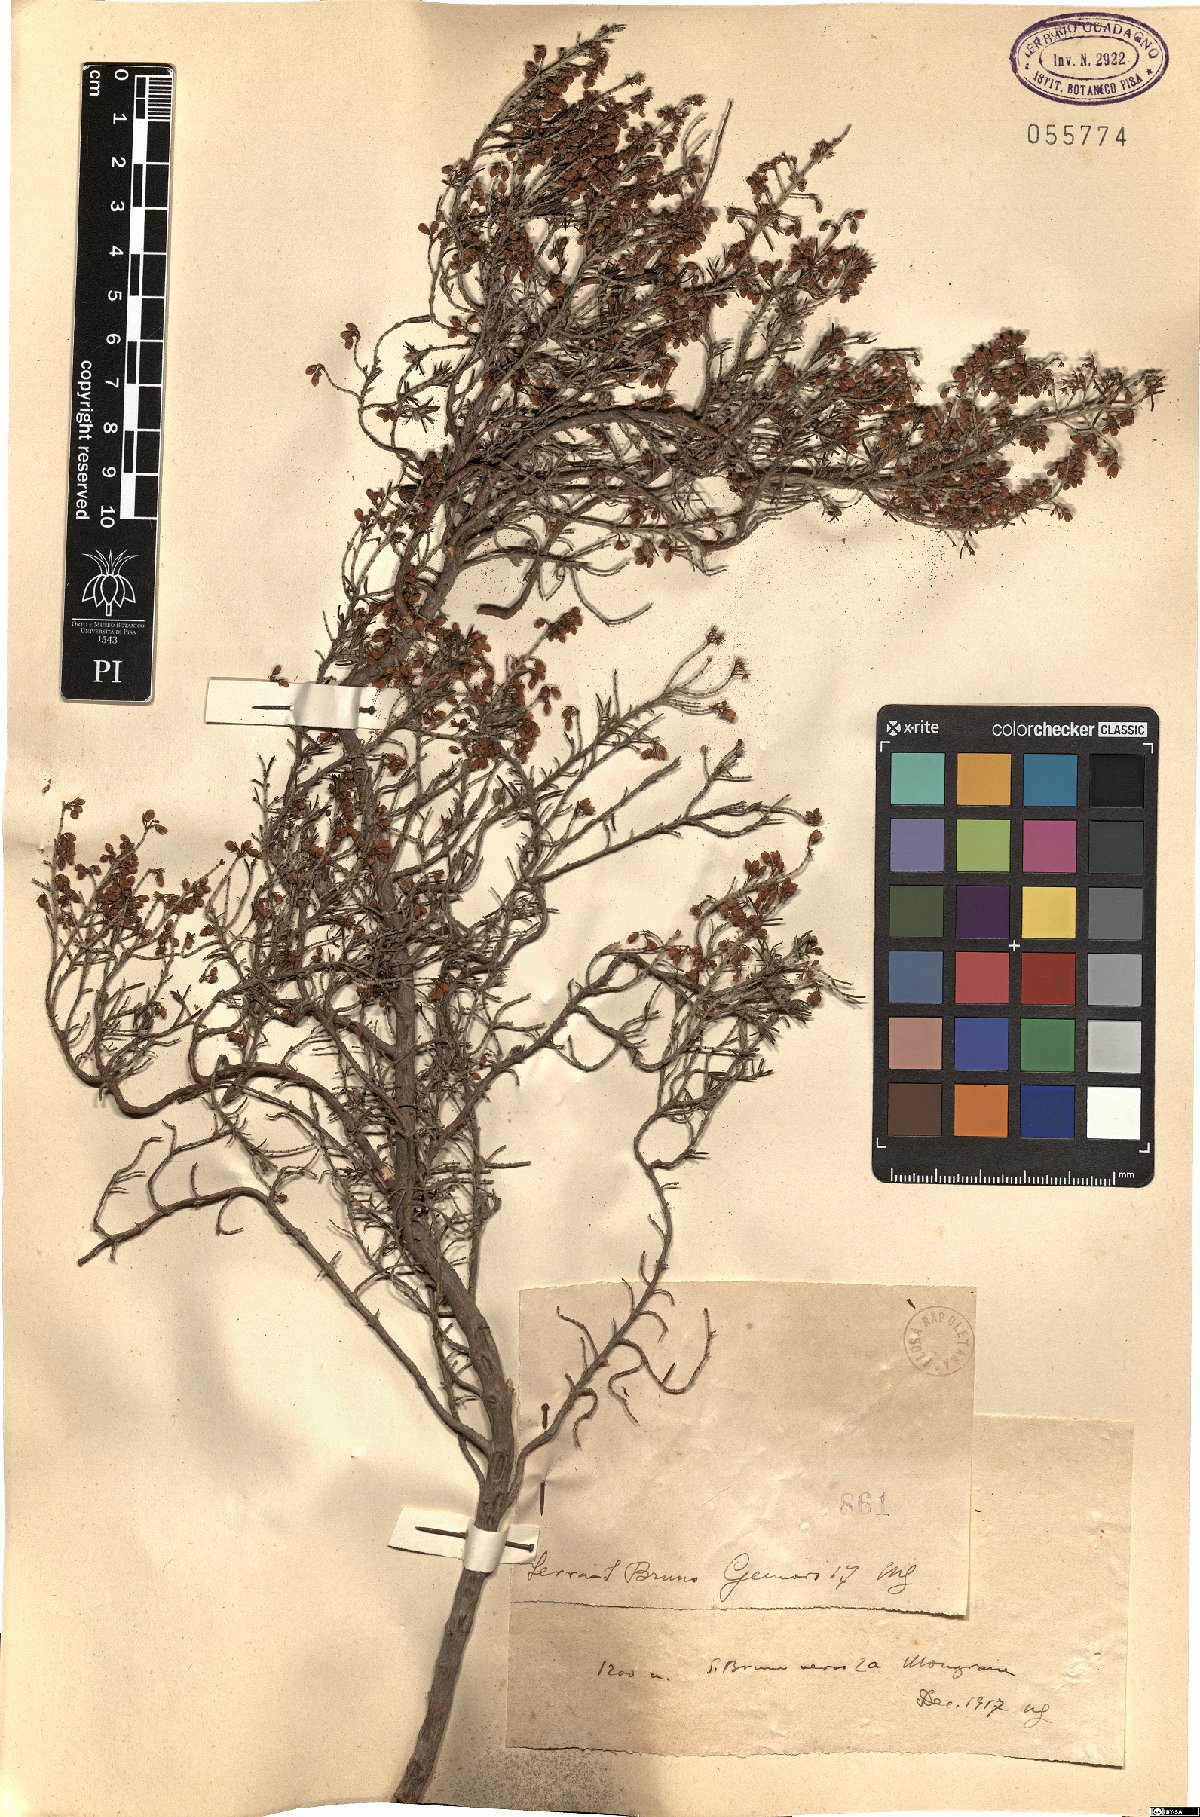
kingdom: Plantae
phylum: Tracheophyta
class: Magnoliopsida
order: Ericales
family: Ericaceae
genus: Erica
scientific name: Erica
